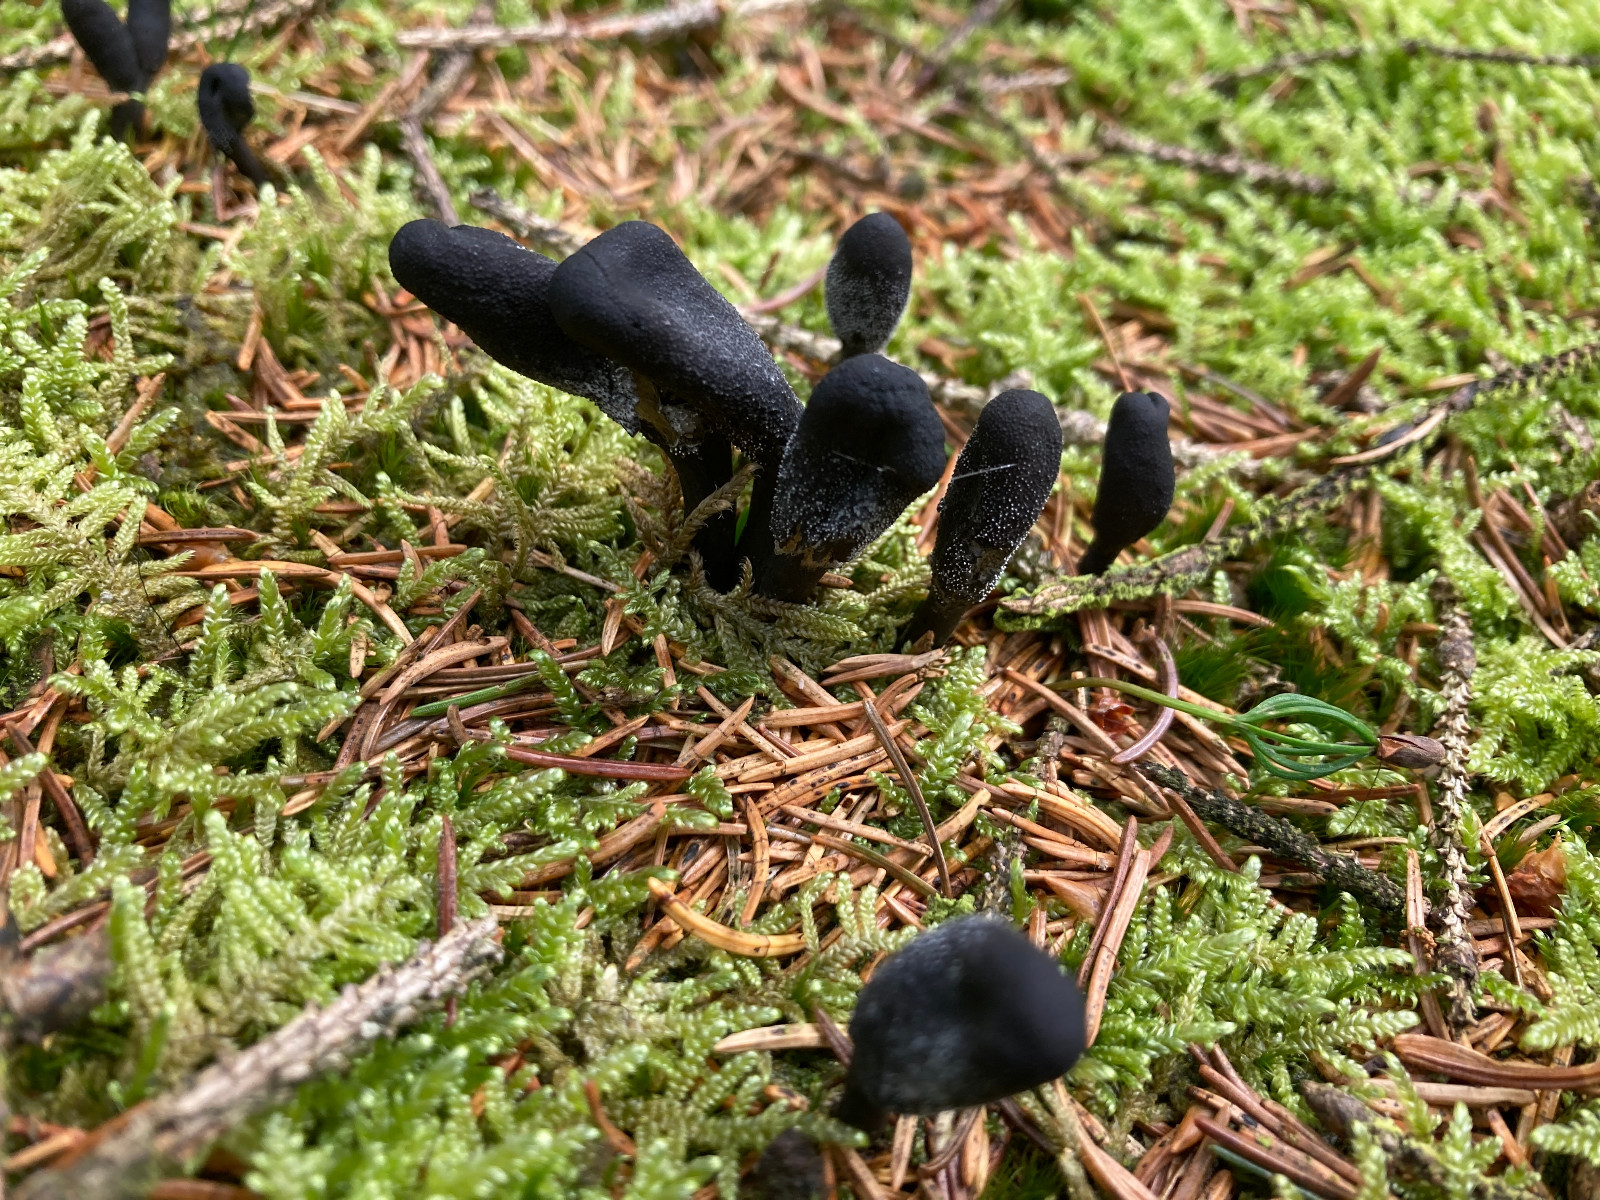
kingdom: Fungi
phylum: Ascomycota
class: Sordariomycetes
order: Hypocreales
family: Ophiocordycipitaceae
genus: Tolypocladium
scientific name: Tolypocladium ophioglossoides
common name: slank snyltekølle
